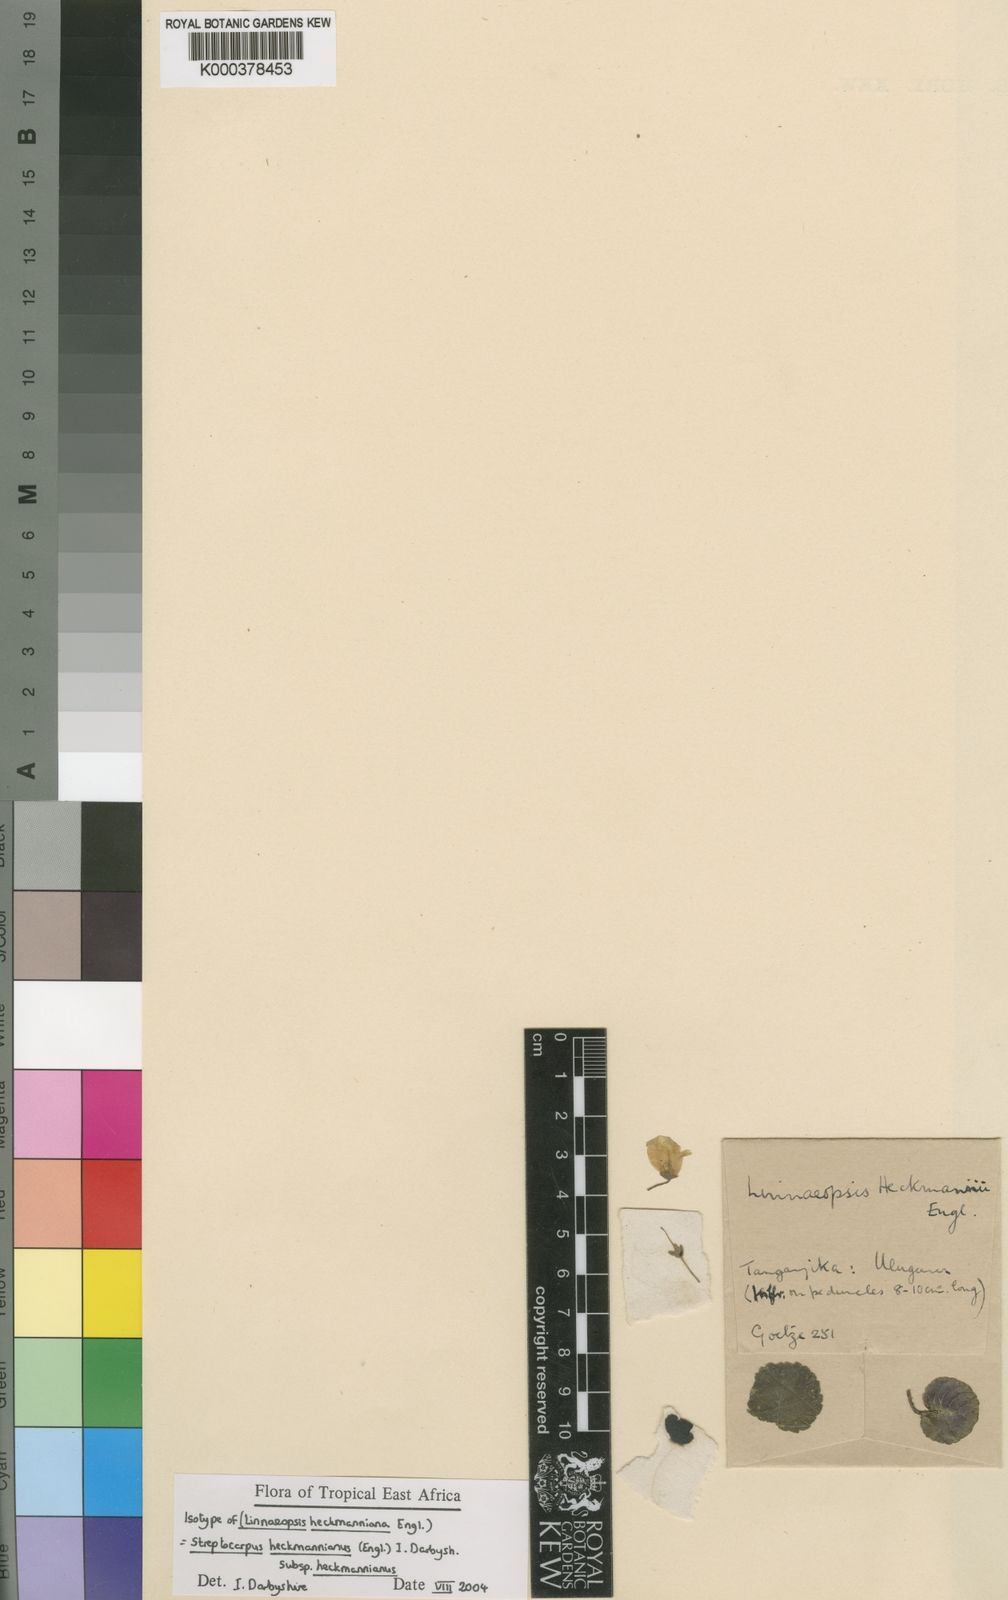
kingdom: Plantae
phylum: Tracheophyta
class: Magnoliopsida
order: Lamiales
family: Gesneriaceae
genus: Streptocarpus
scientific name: Streptocarpus heckmannianus
